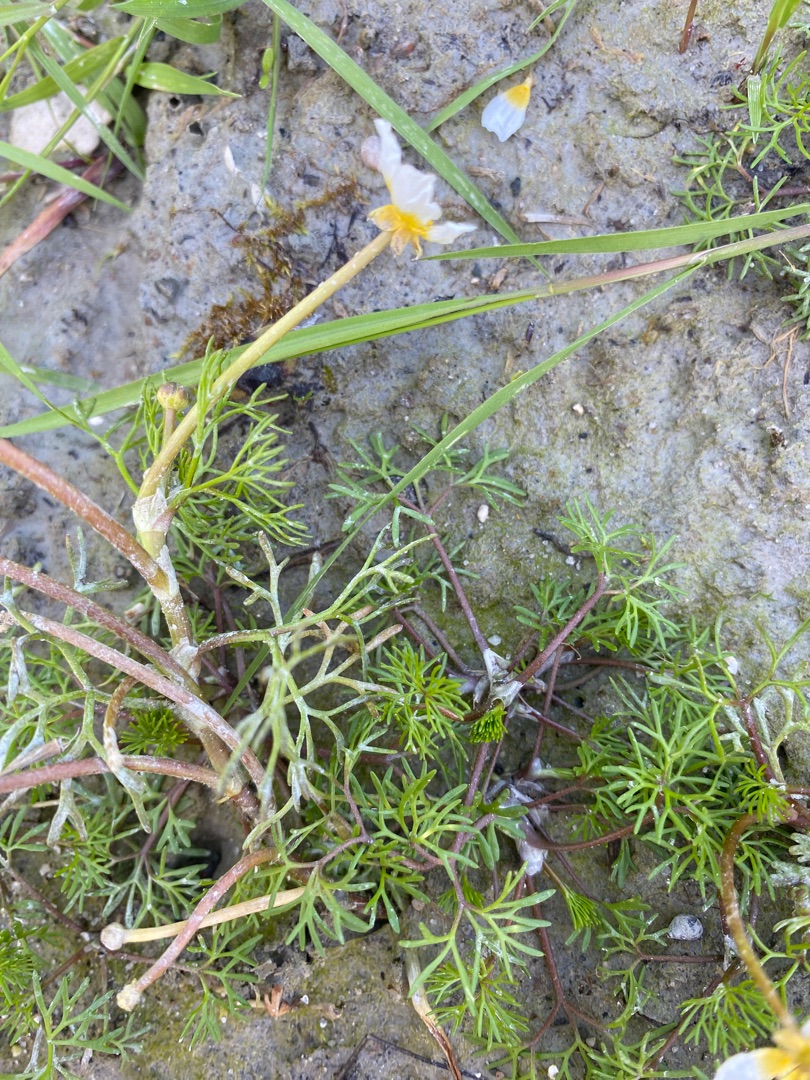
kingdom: Plantae
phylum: Tracheophyta
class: Magnoliopsida
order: Ranunculales
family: Ranunculaceae
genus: Ranunculus
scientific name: Ranunculus
